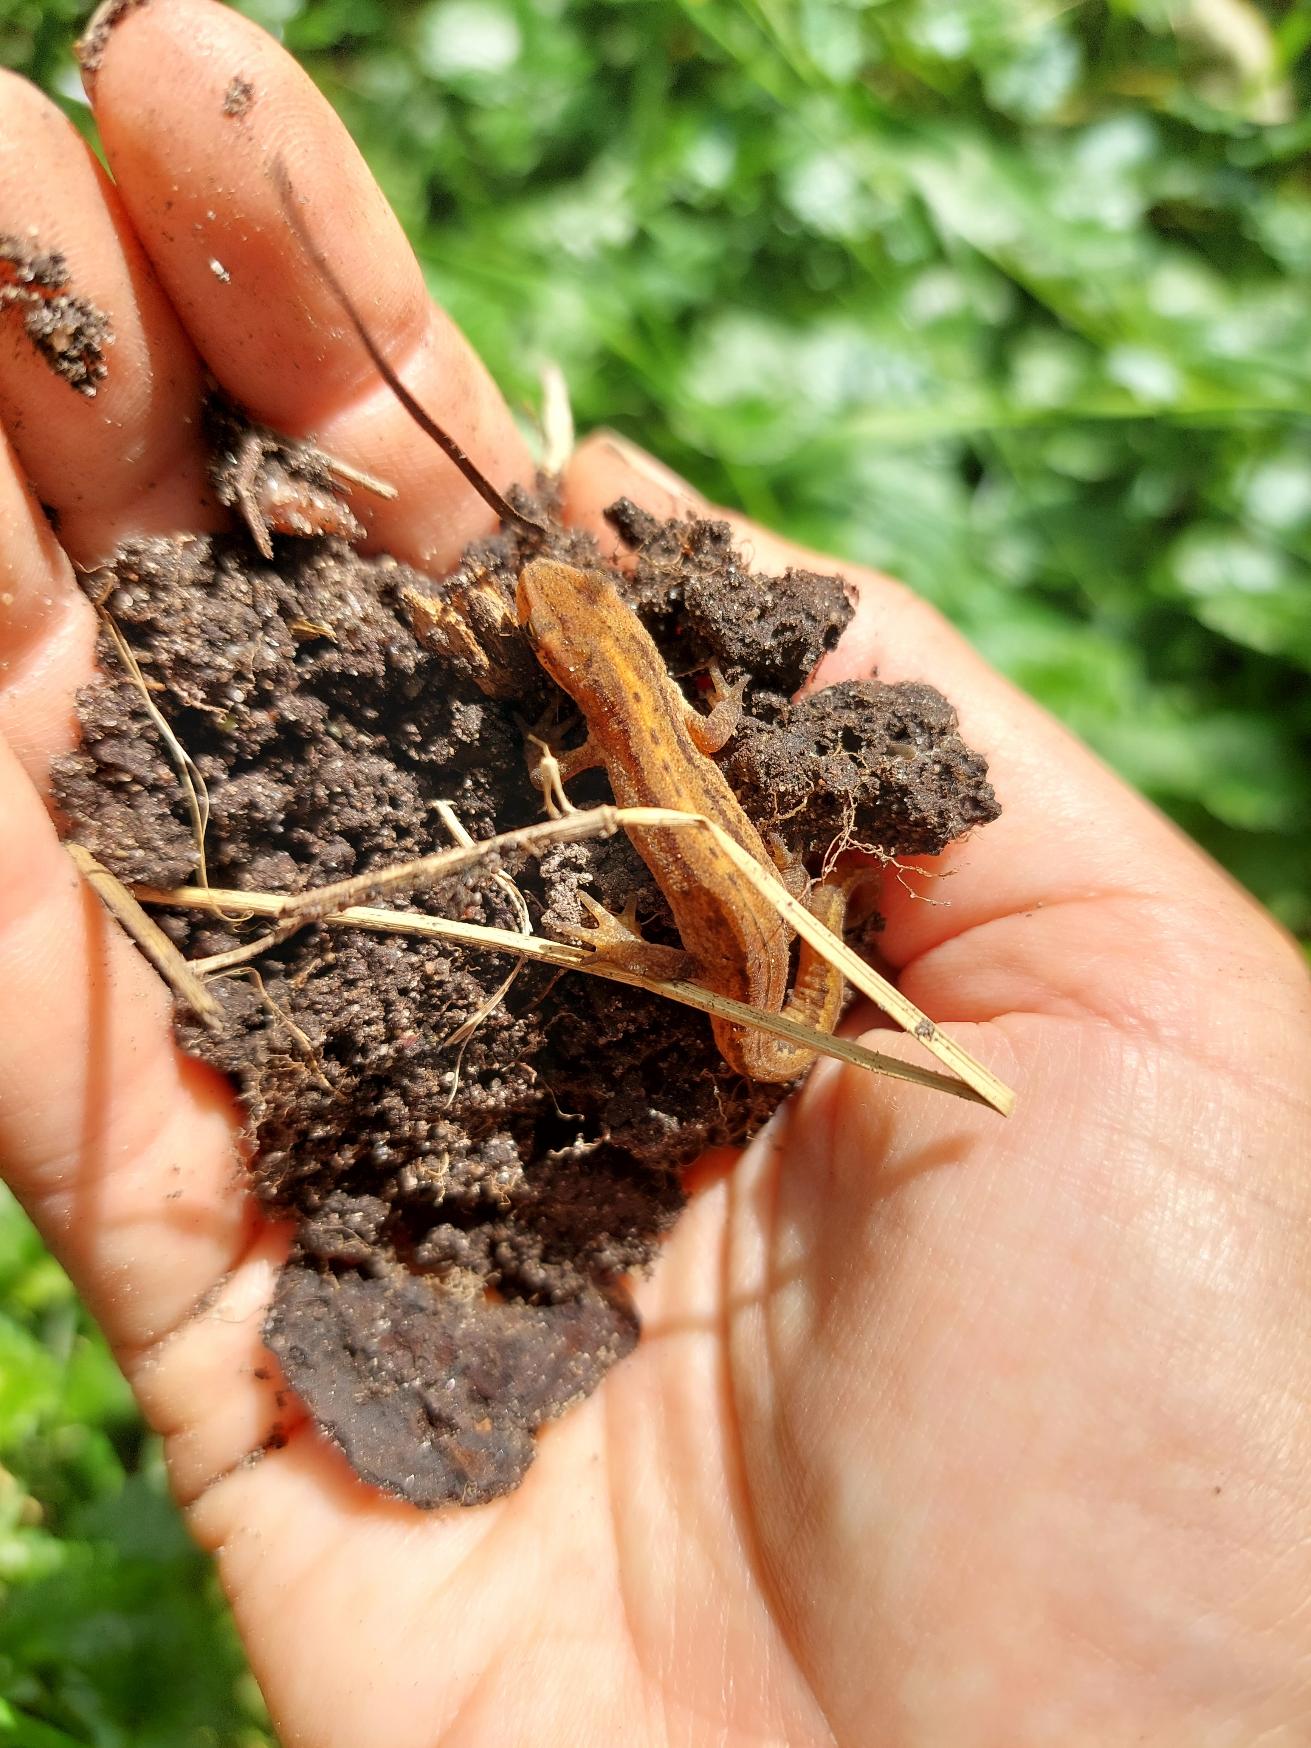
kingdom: Animalia
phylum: Chordata
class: Amphibia
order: Caudata
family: Salamandridae
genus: Lissotriton
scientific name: Lissotriton vulgaris
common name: Lille vandsalamander
